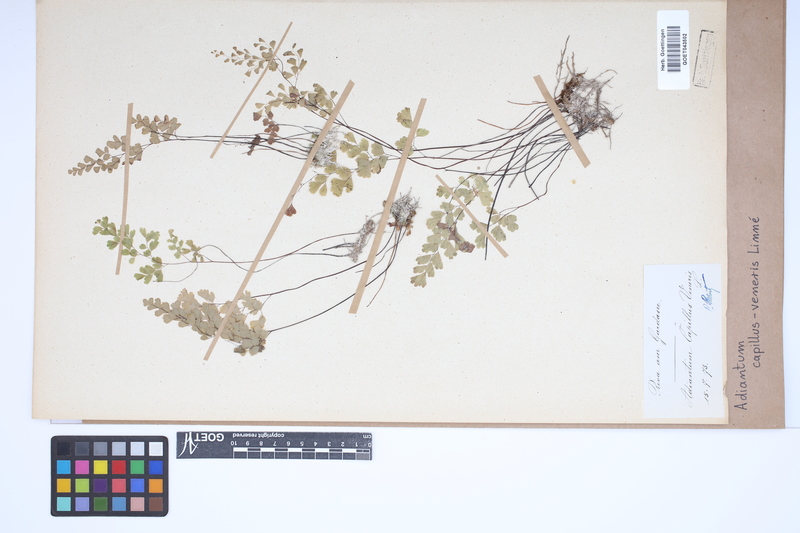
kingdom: Plantae
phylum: Tracheophyta
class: Polypodiopsida
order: Polypodiales
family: Pteridaceae
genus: Adiantum
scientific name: Adiantum capillus-veneris
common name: Maidenhair fern
